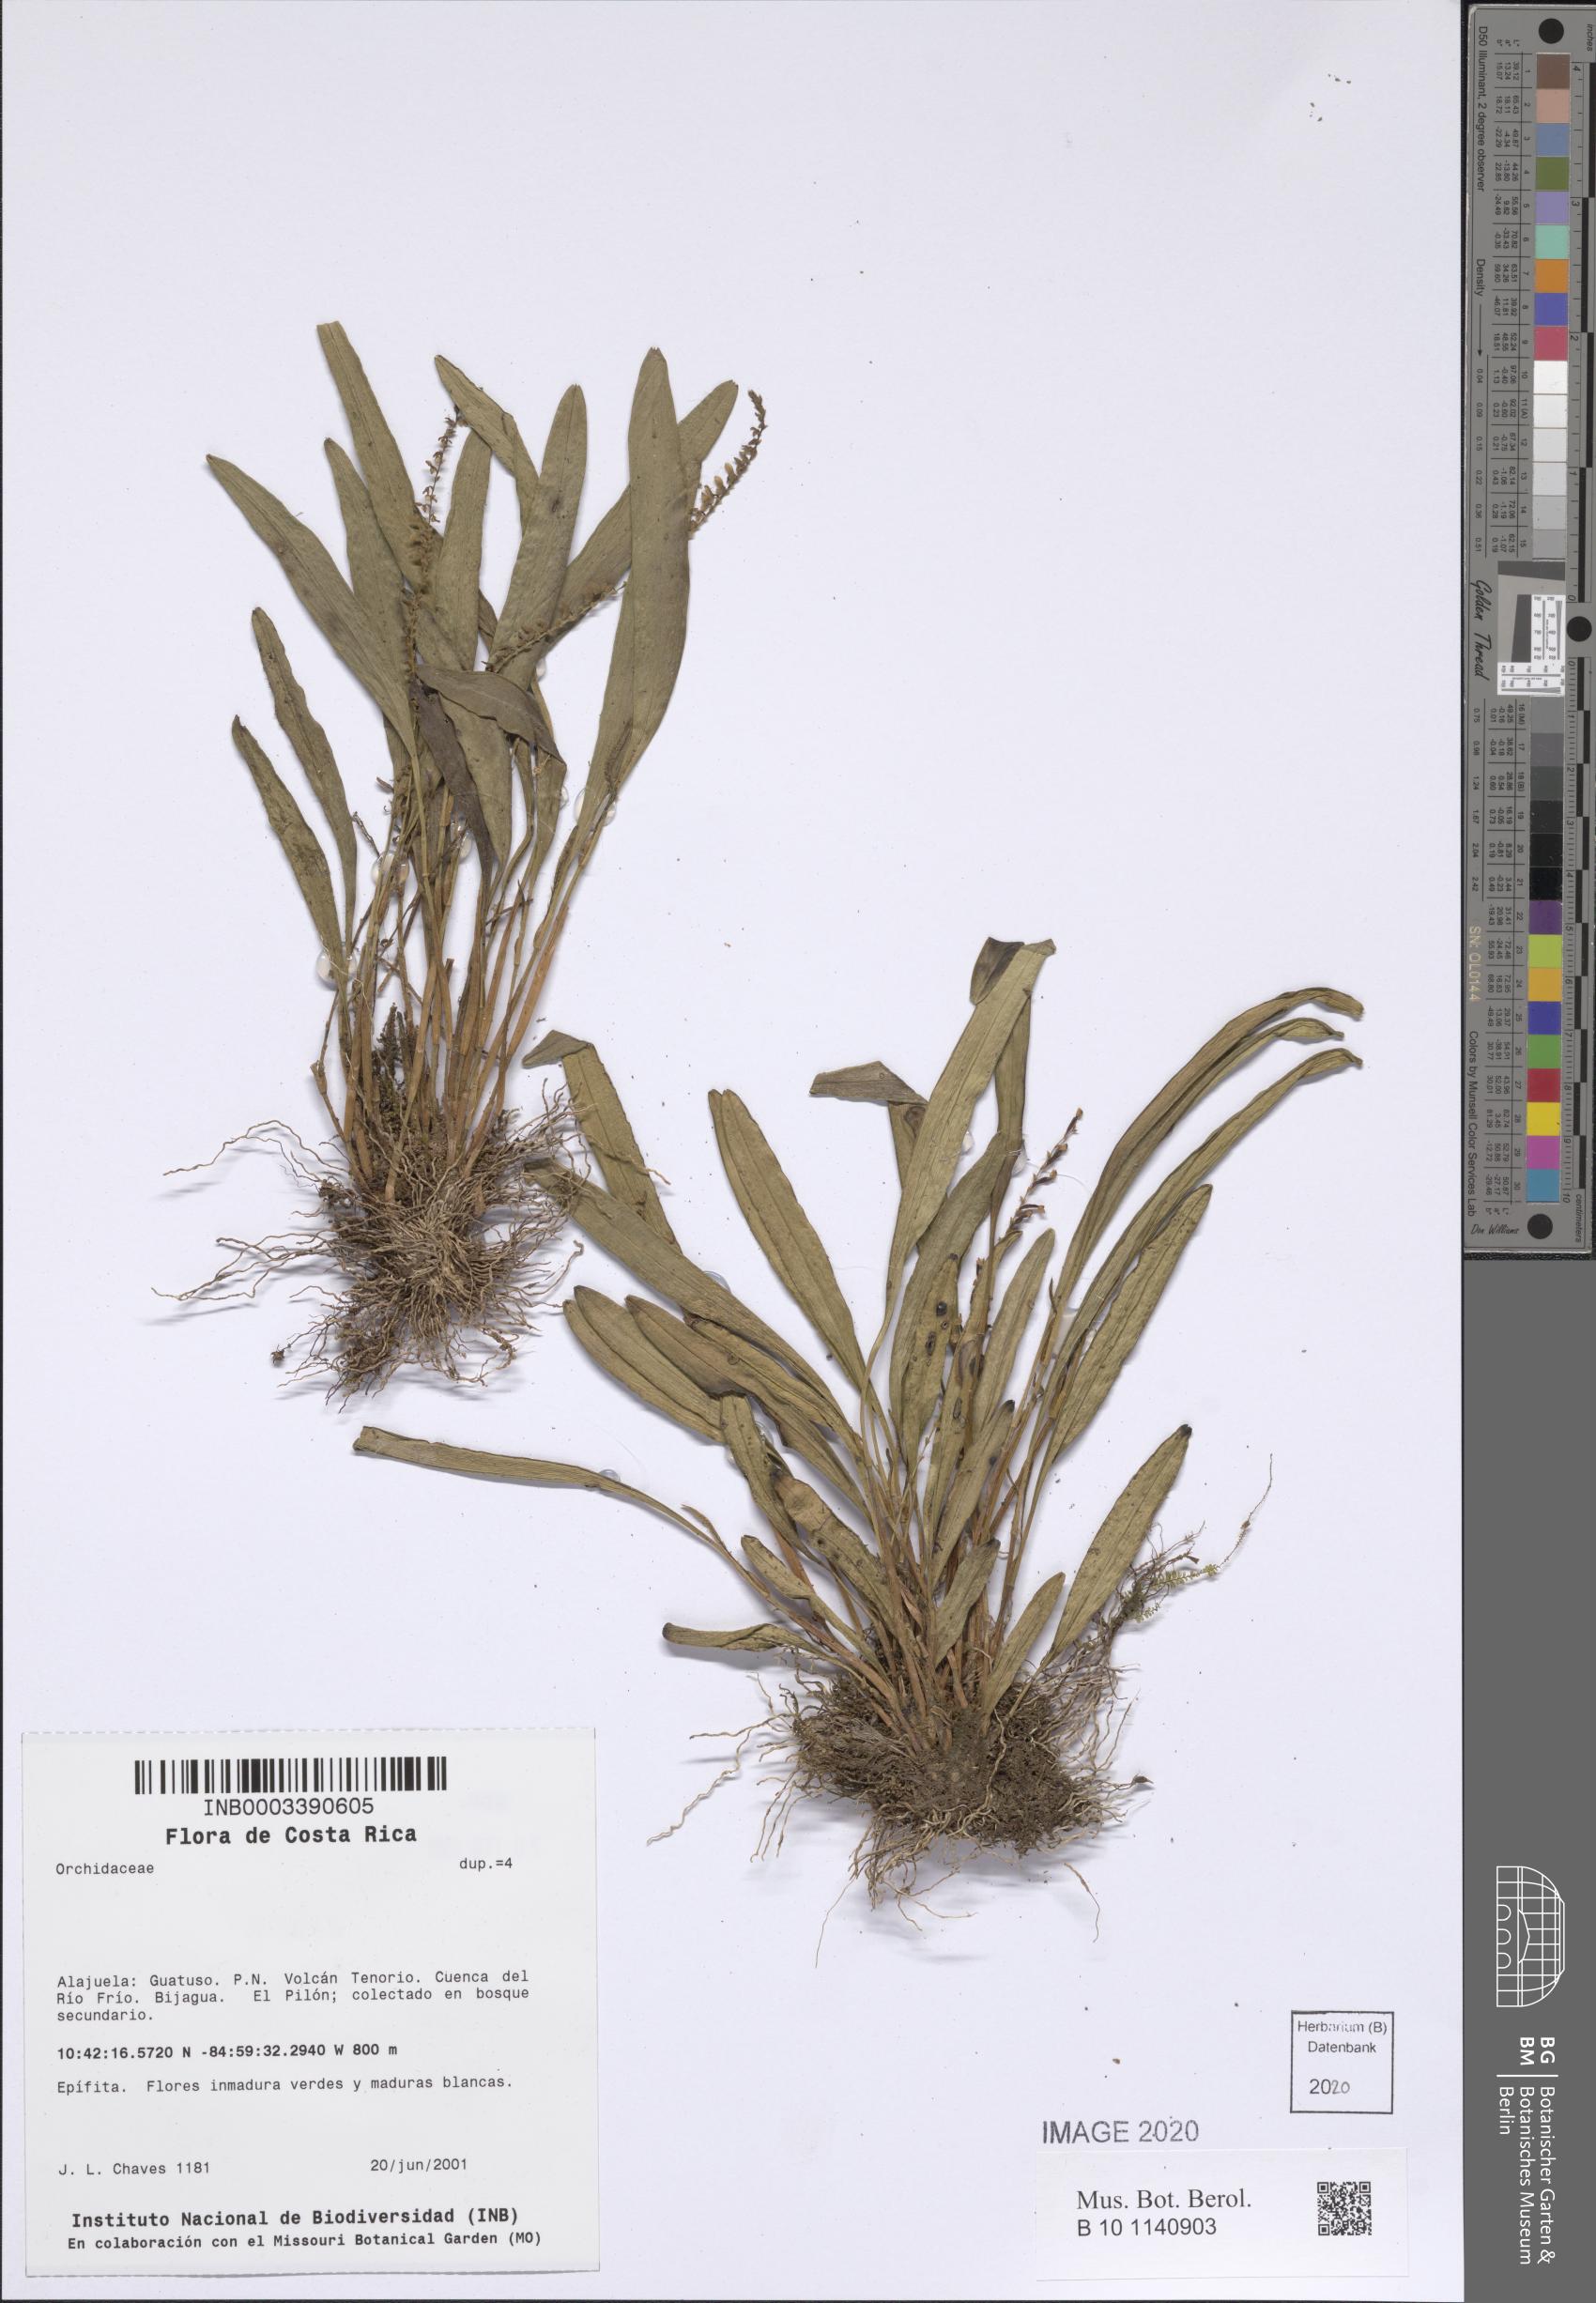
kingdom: Plantae
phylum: Tracheophyta
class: Liliopsida
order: Asparagales
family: Orchidaceae
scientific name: Orchidaceae
